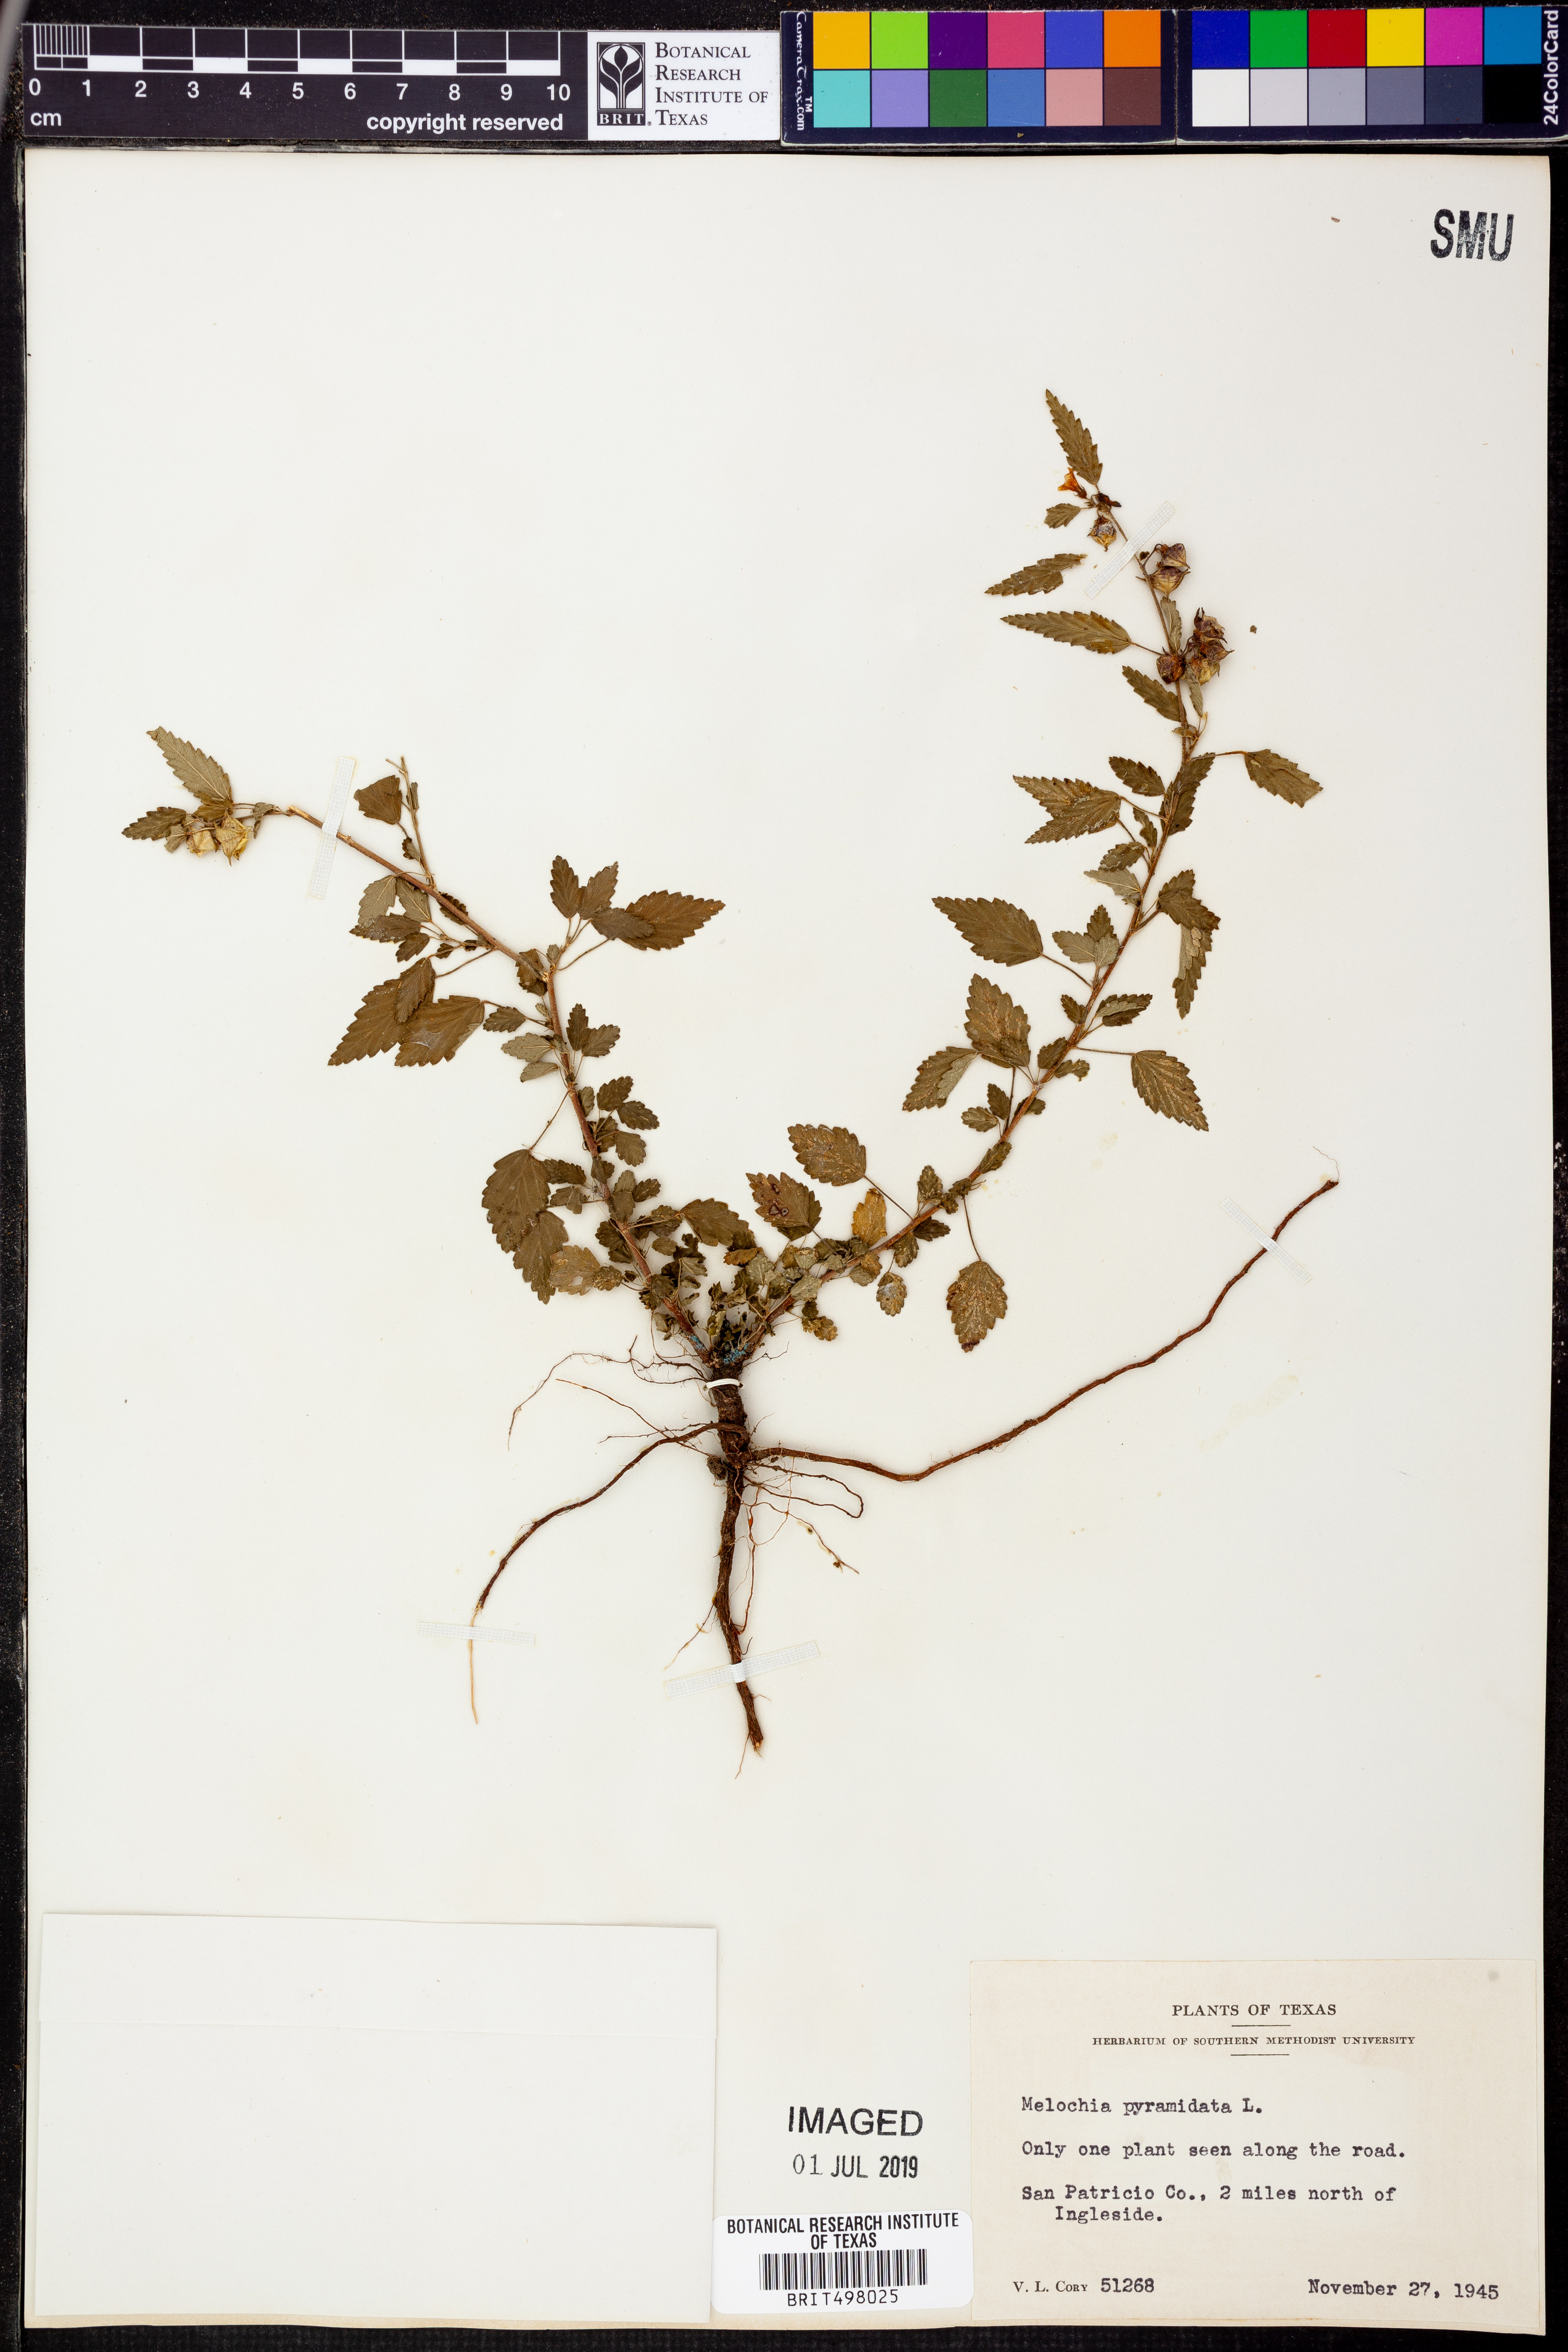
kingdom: Plantae
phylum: Tracheophyta
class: Magnoliopsida
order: Malvales
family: Malvaceae
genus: Melochia
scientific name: Melochia pyramidata
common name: Pyramidflower
